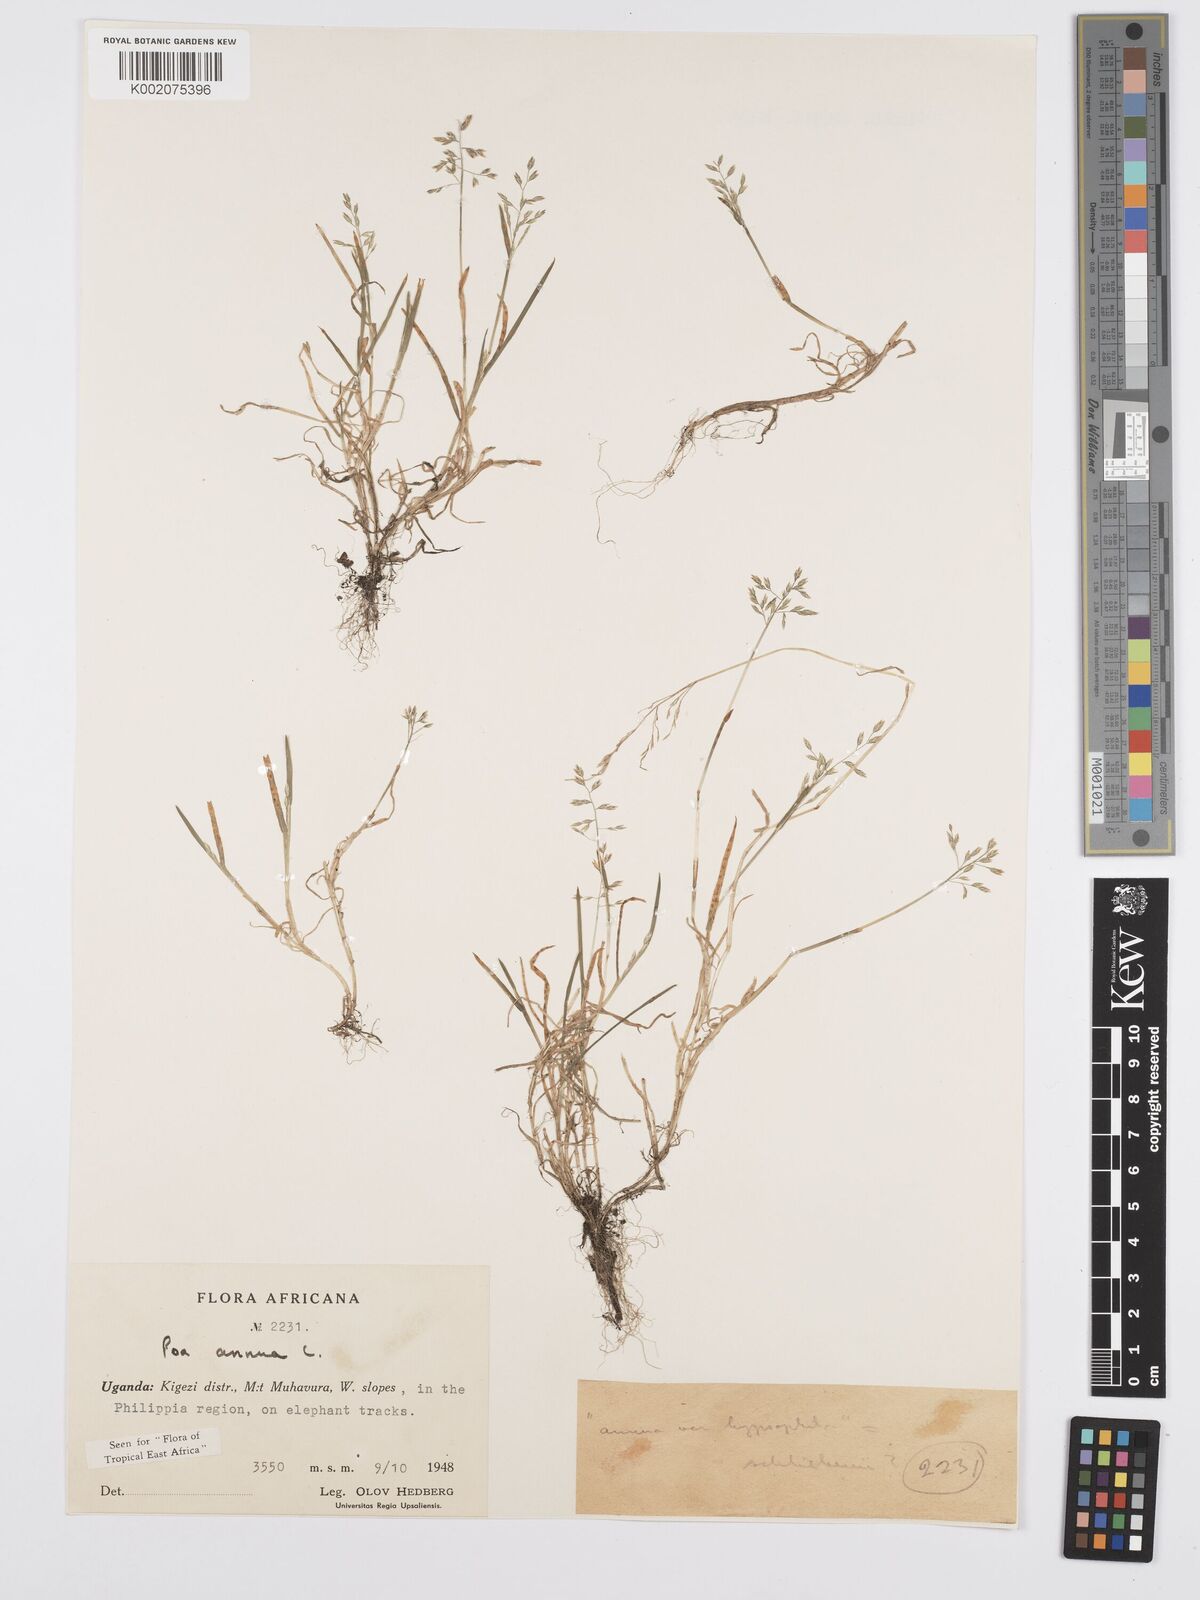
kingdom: Plantae
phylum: Tracheophyta
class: Liliopsida
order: Poales
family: Poaceae
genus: Poa
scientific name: Poa annua
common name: Annual bluegrass
